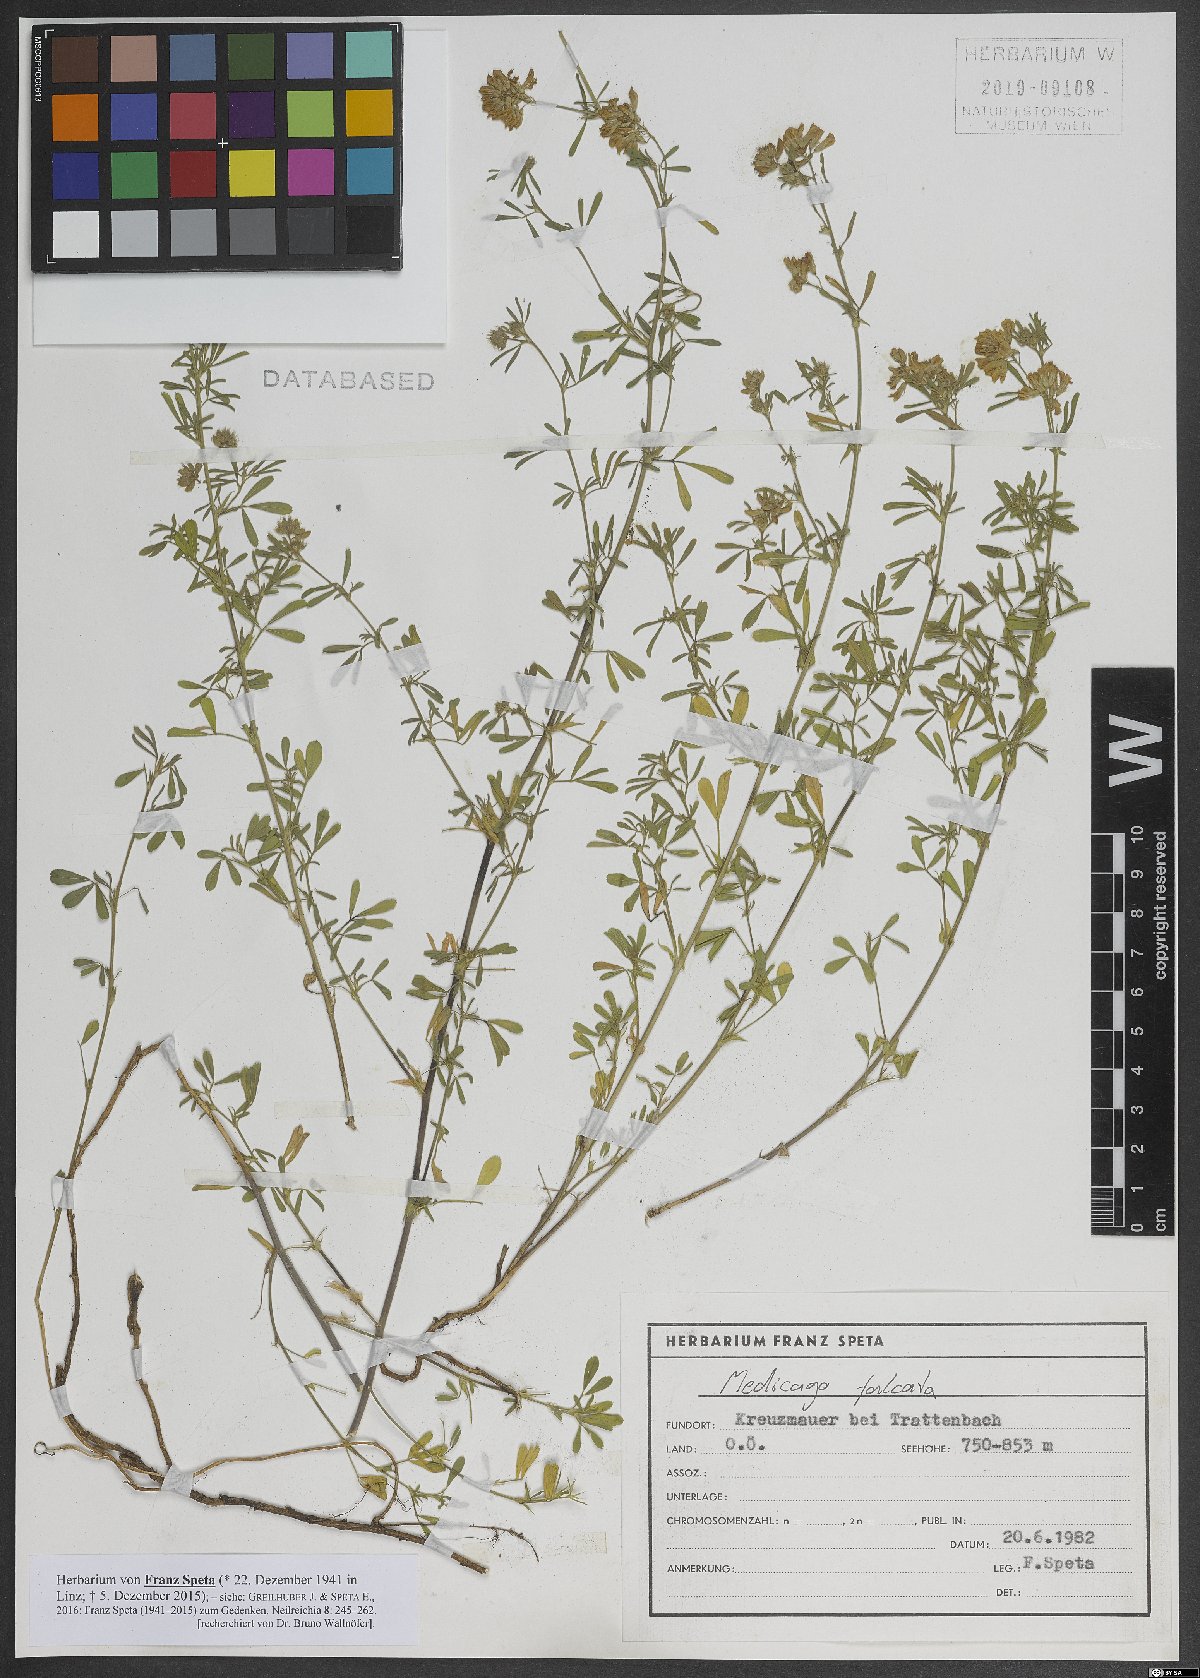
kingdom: Plantae
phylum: Tracheophyta
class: Magnoliopsida
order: Fabales
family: Fabaceae
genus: Medicago
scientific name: Medicago falcata
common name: Sickle medick
